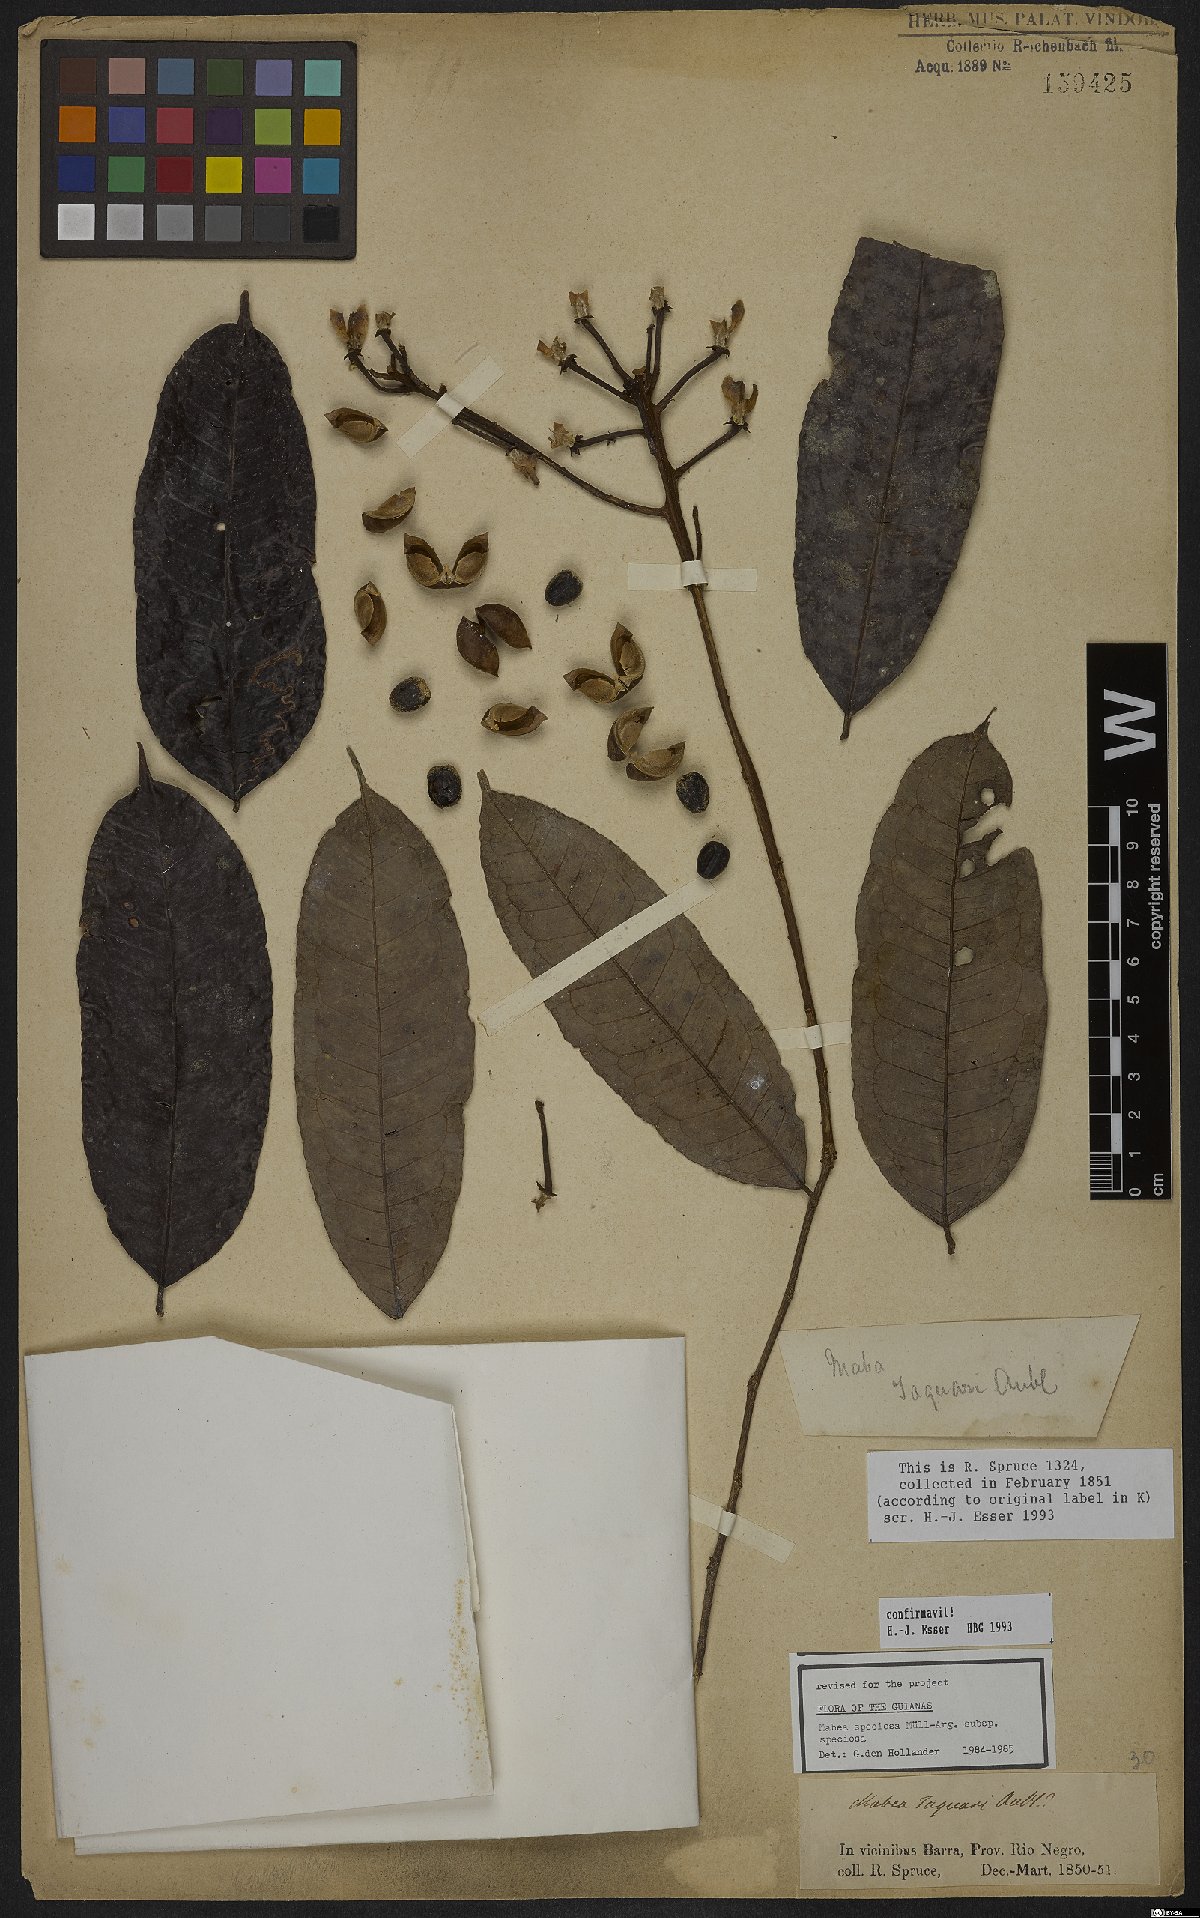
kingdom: Plantae
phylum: Tracheophyta
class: Magnoliopsida
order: Malpighiales
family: Euphorbiaceae
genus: Mabea
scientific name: Mabea speciosa
